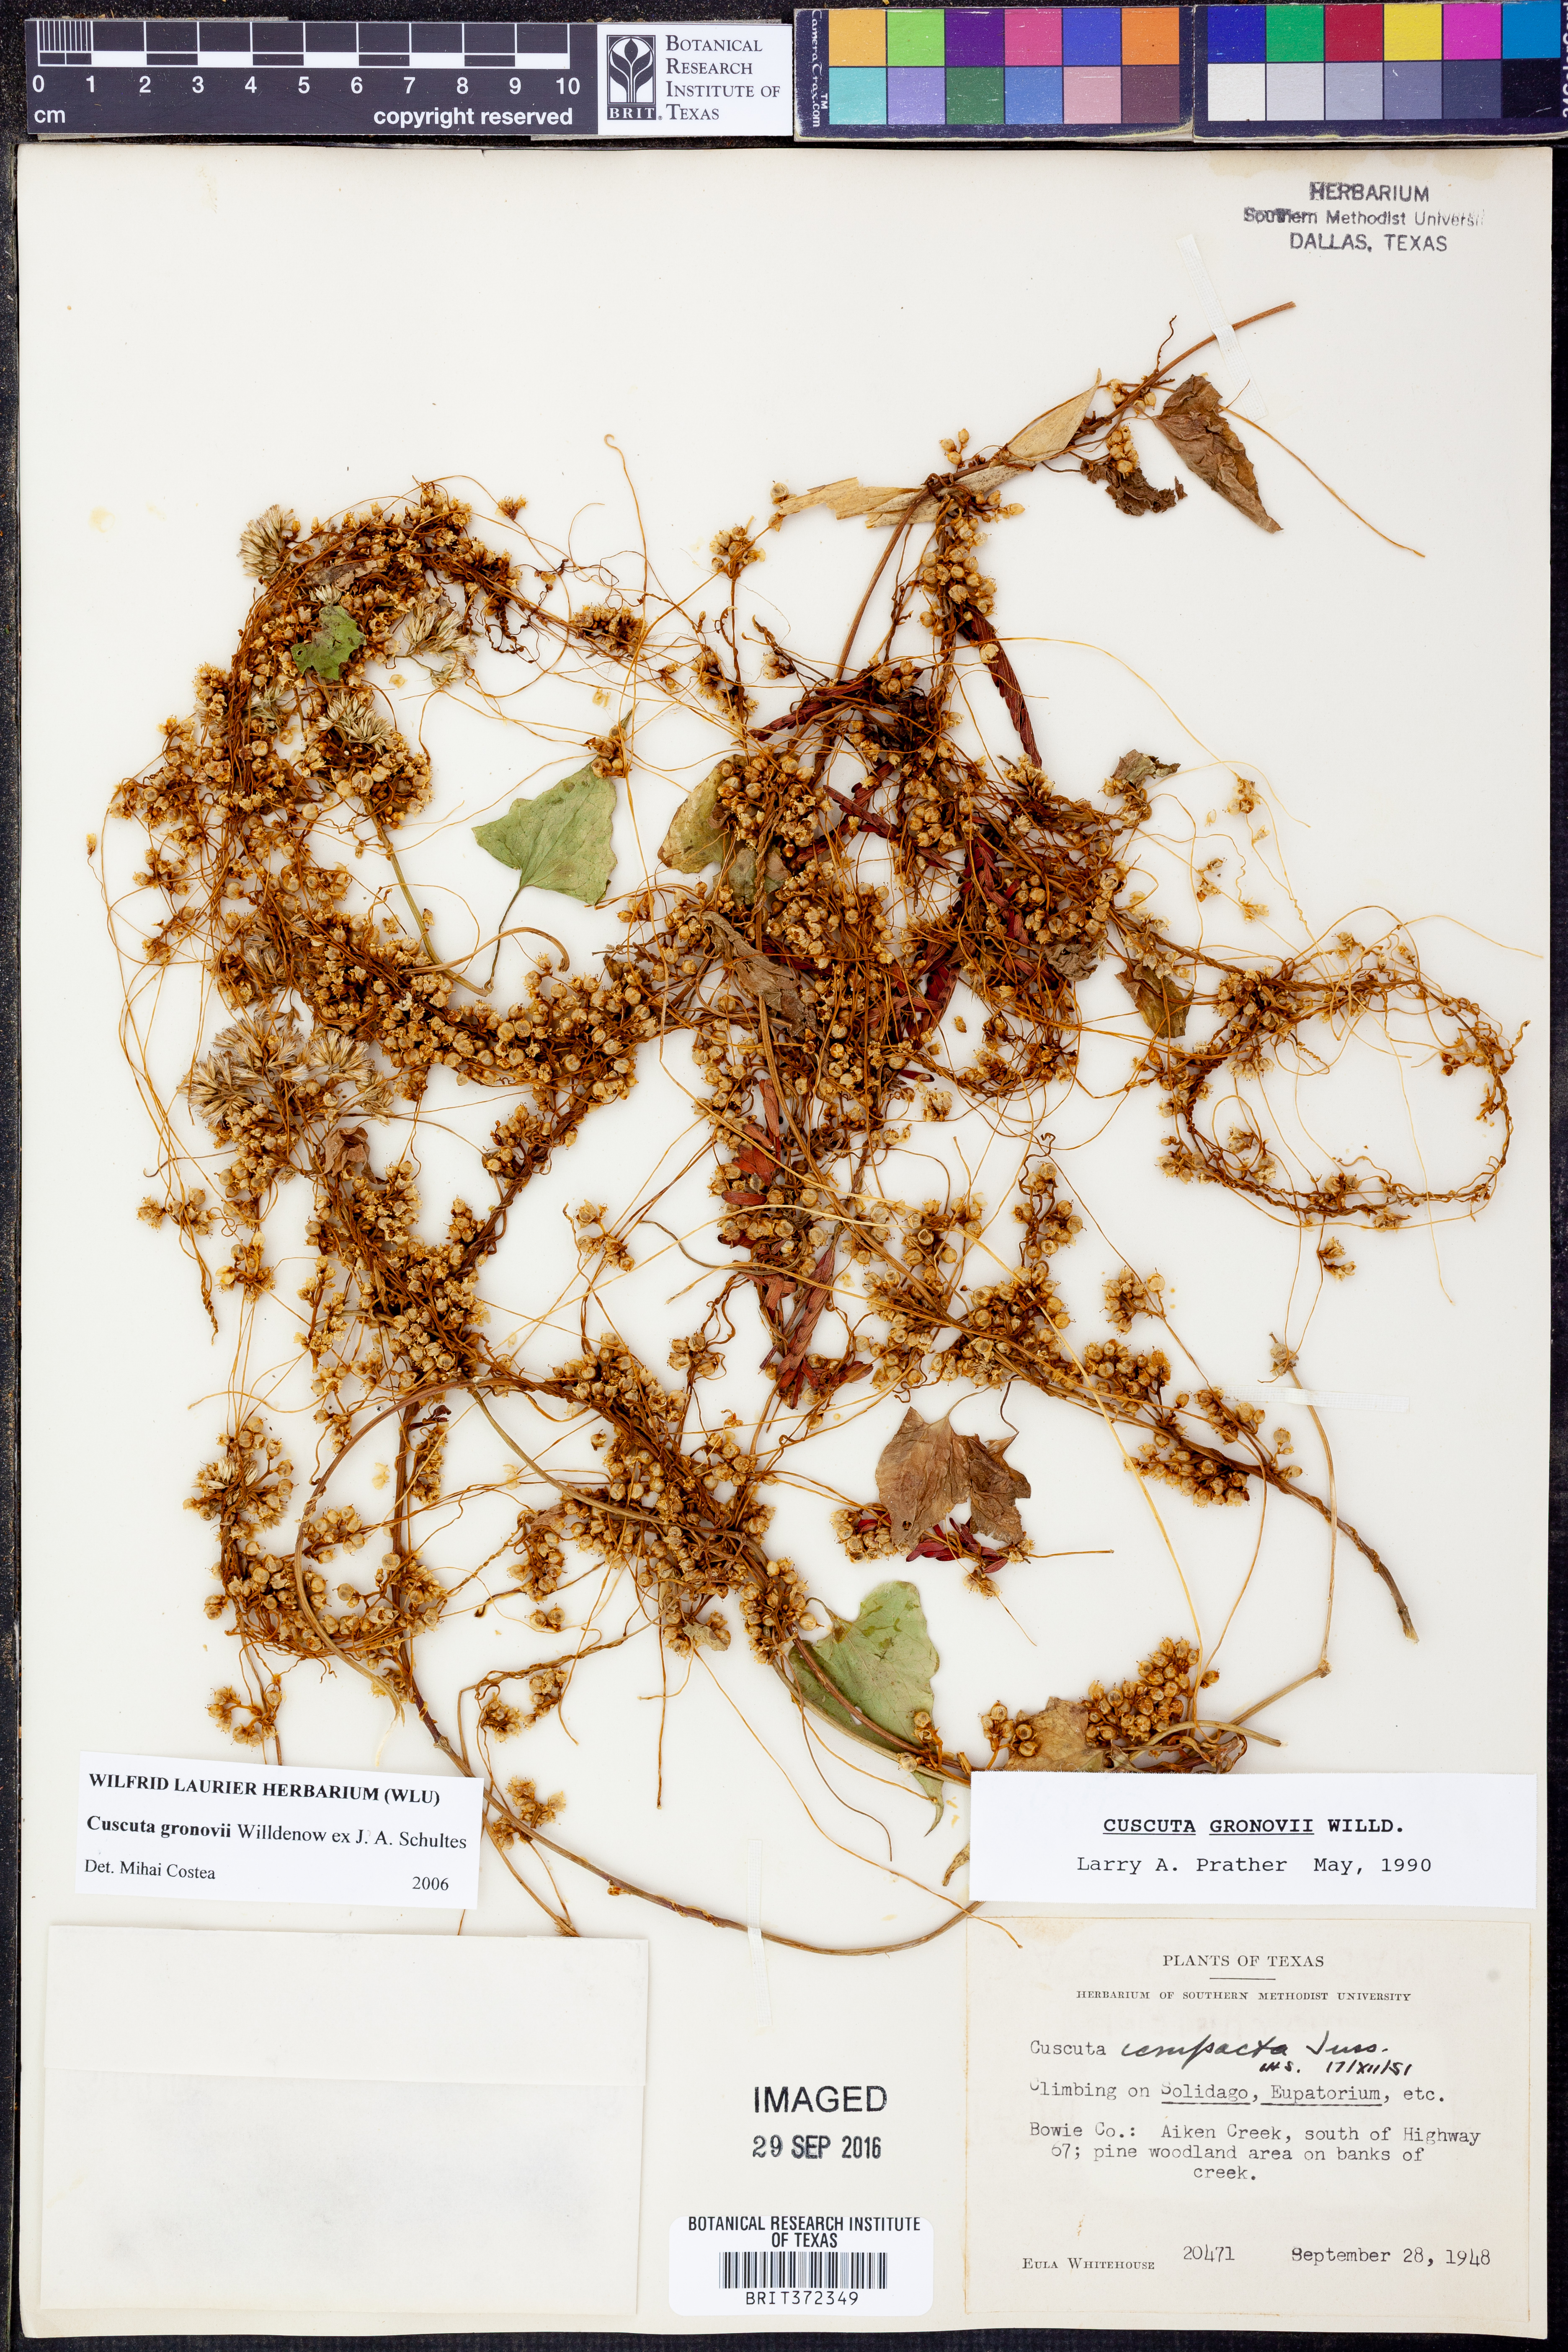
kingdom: Plantae
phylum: Tracheophyta
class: Magnoliopsida
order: Solanales
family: Convolvulaceae
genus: Cuscuta
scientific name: Cuscuta gronovii
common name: Common dodder
